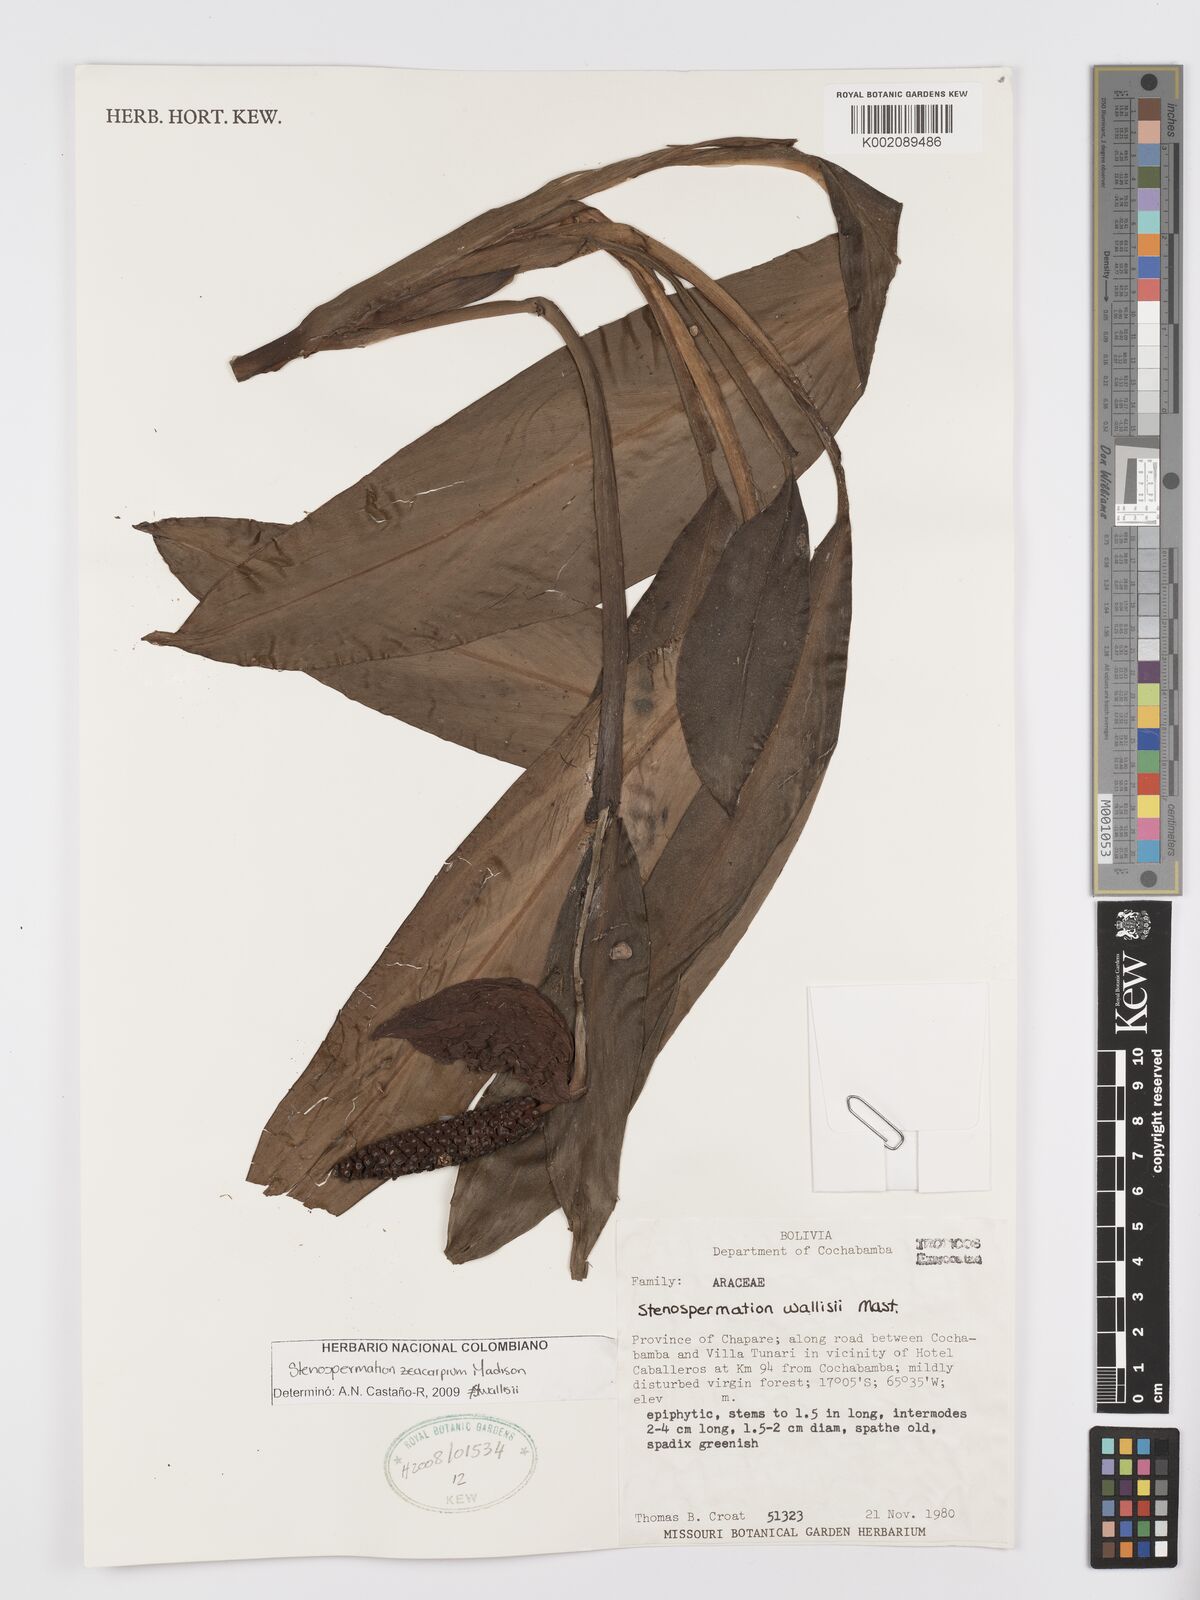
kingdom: Plantae
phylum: Tracheophyta
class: Liliopsida
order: Alismatales
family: Araceae
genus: Stenospermation
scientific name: Stenospermation zeacarpium
